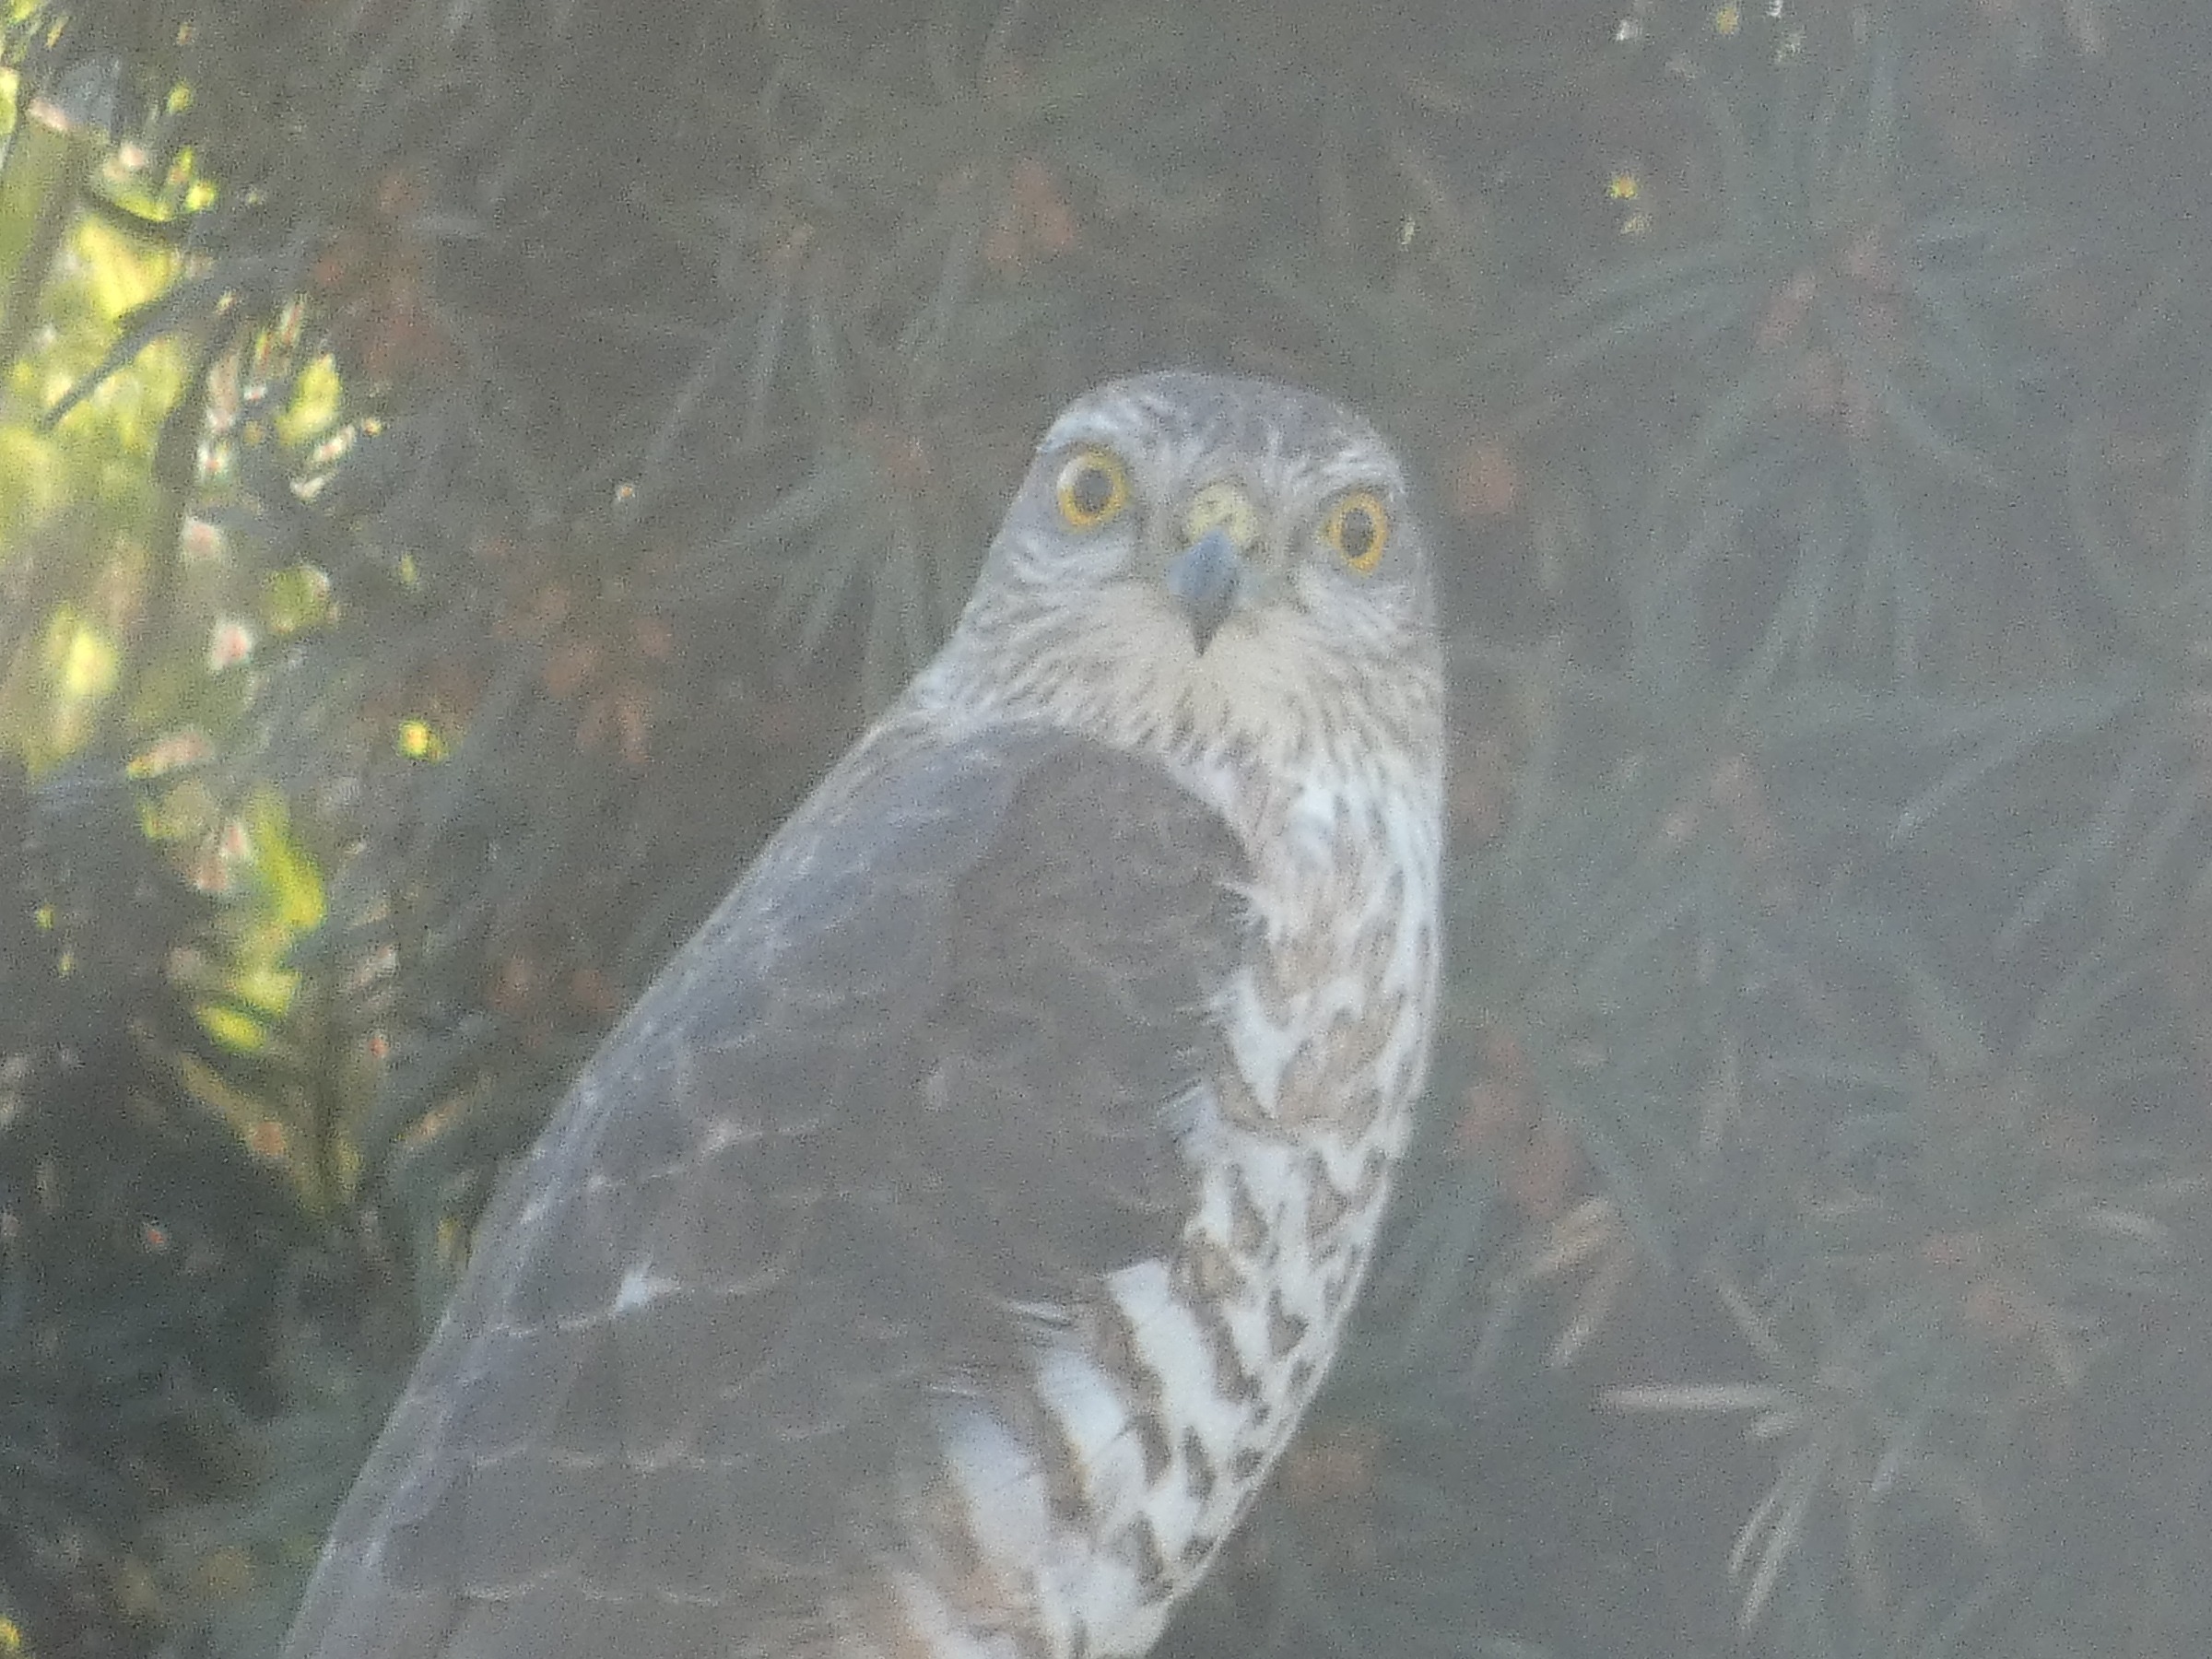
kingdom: Animalia
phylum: Chordata
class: Aves
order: Accipitriformes
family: Accipitridae
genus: Accipiter
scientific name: Accipiter nisus
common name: Spurvehøg
